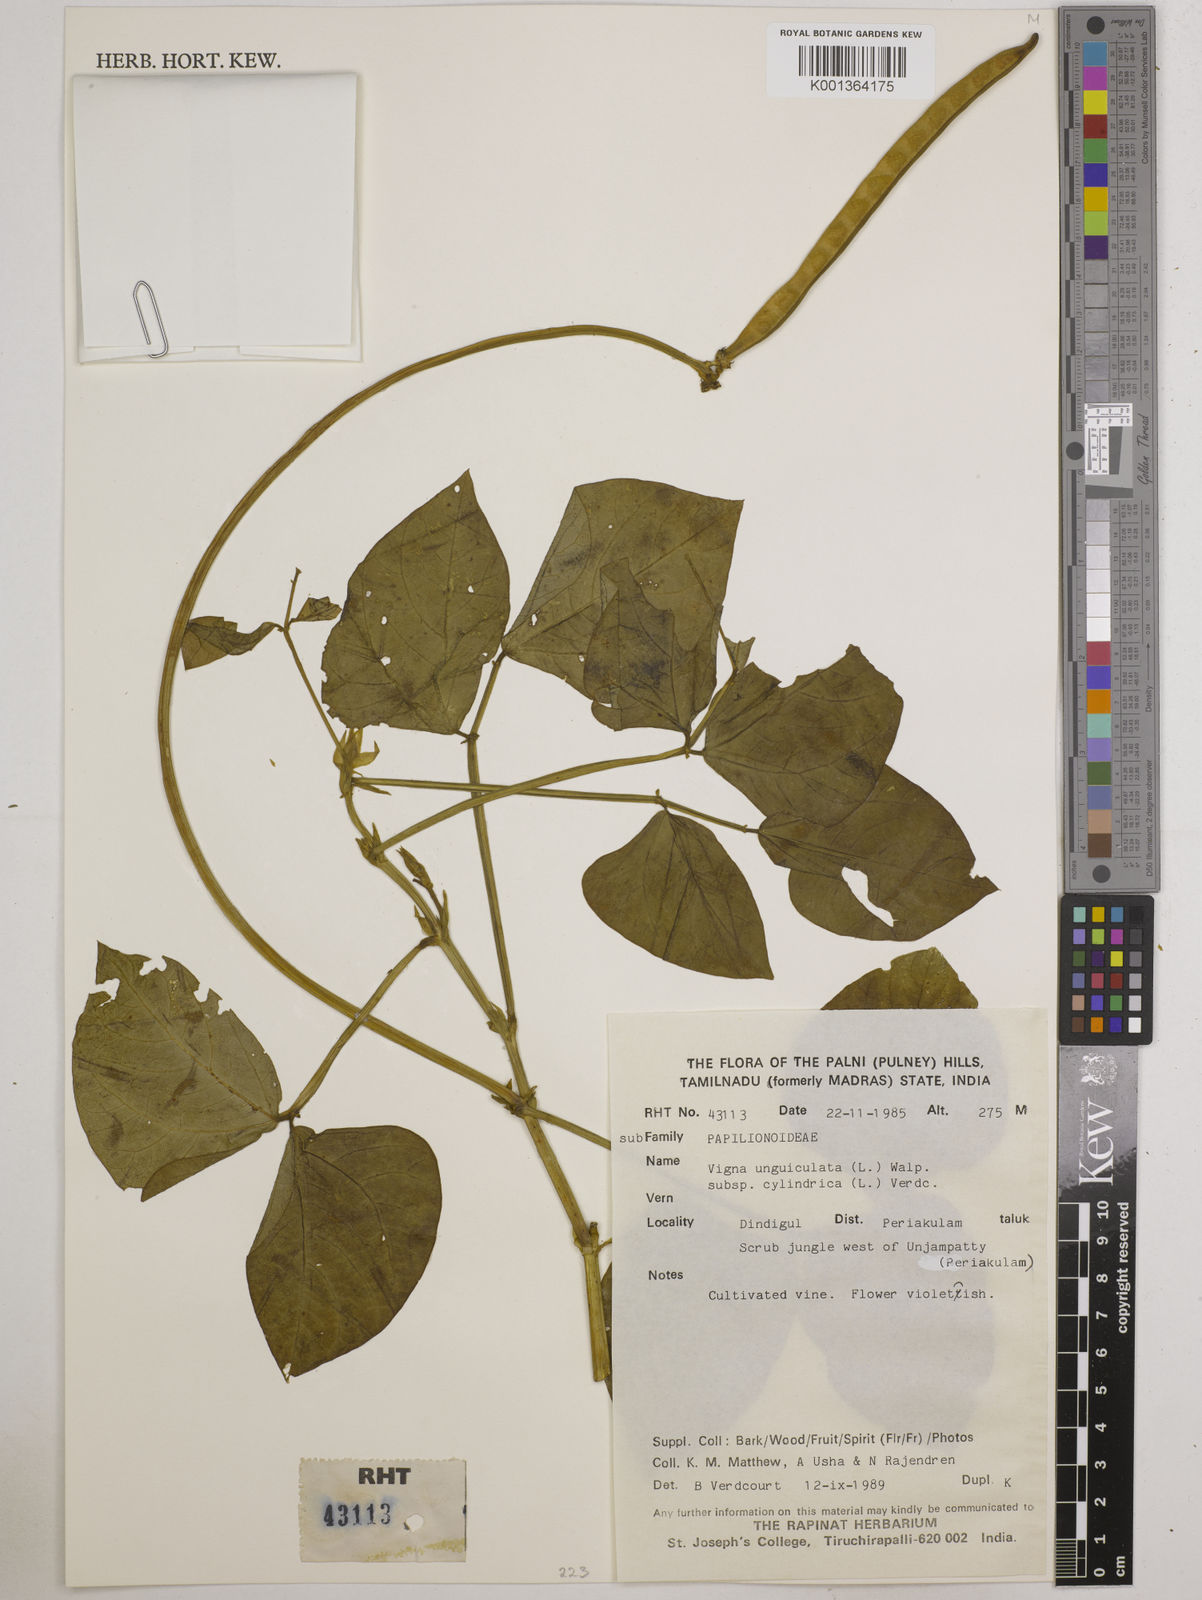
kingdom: Plantae
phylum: Tracheophyta
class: Magnoliopsida
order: Fabales
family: Fabaceae
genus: Vigna
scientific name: Vigna
